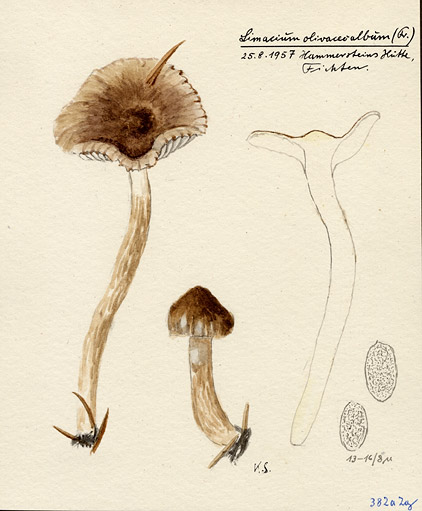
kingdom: Fungi
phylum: Basidiomycota
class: Agaricomycetes
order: Agaricales
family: Hygrophoraceae
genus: Hygrophorus
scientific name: Hygrophorus olivaceoalbus
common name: Olive wax cap
